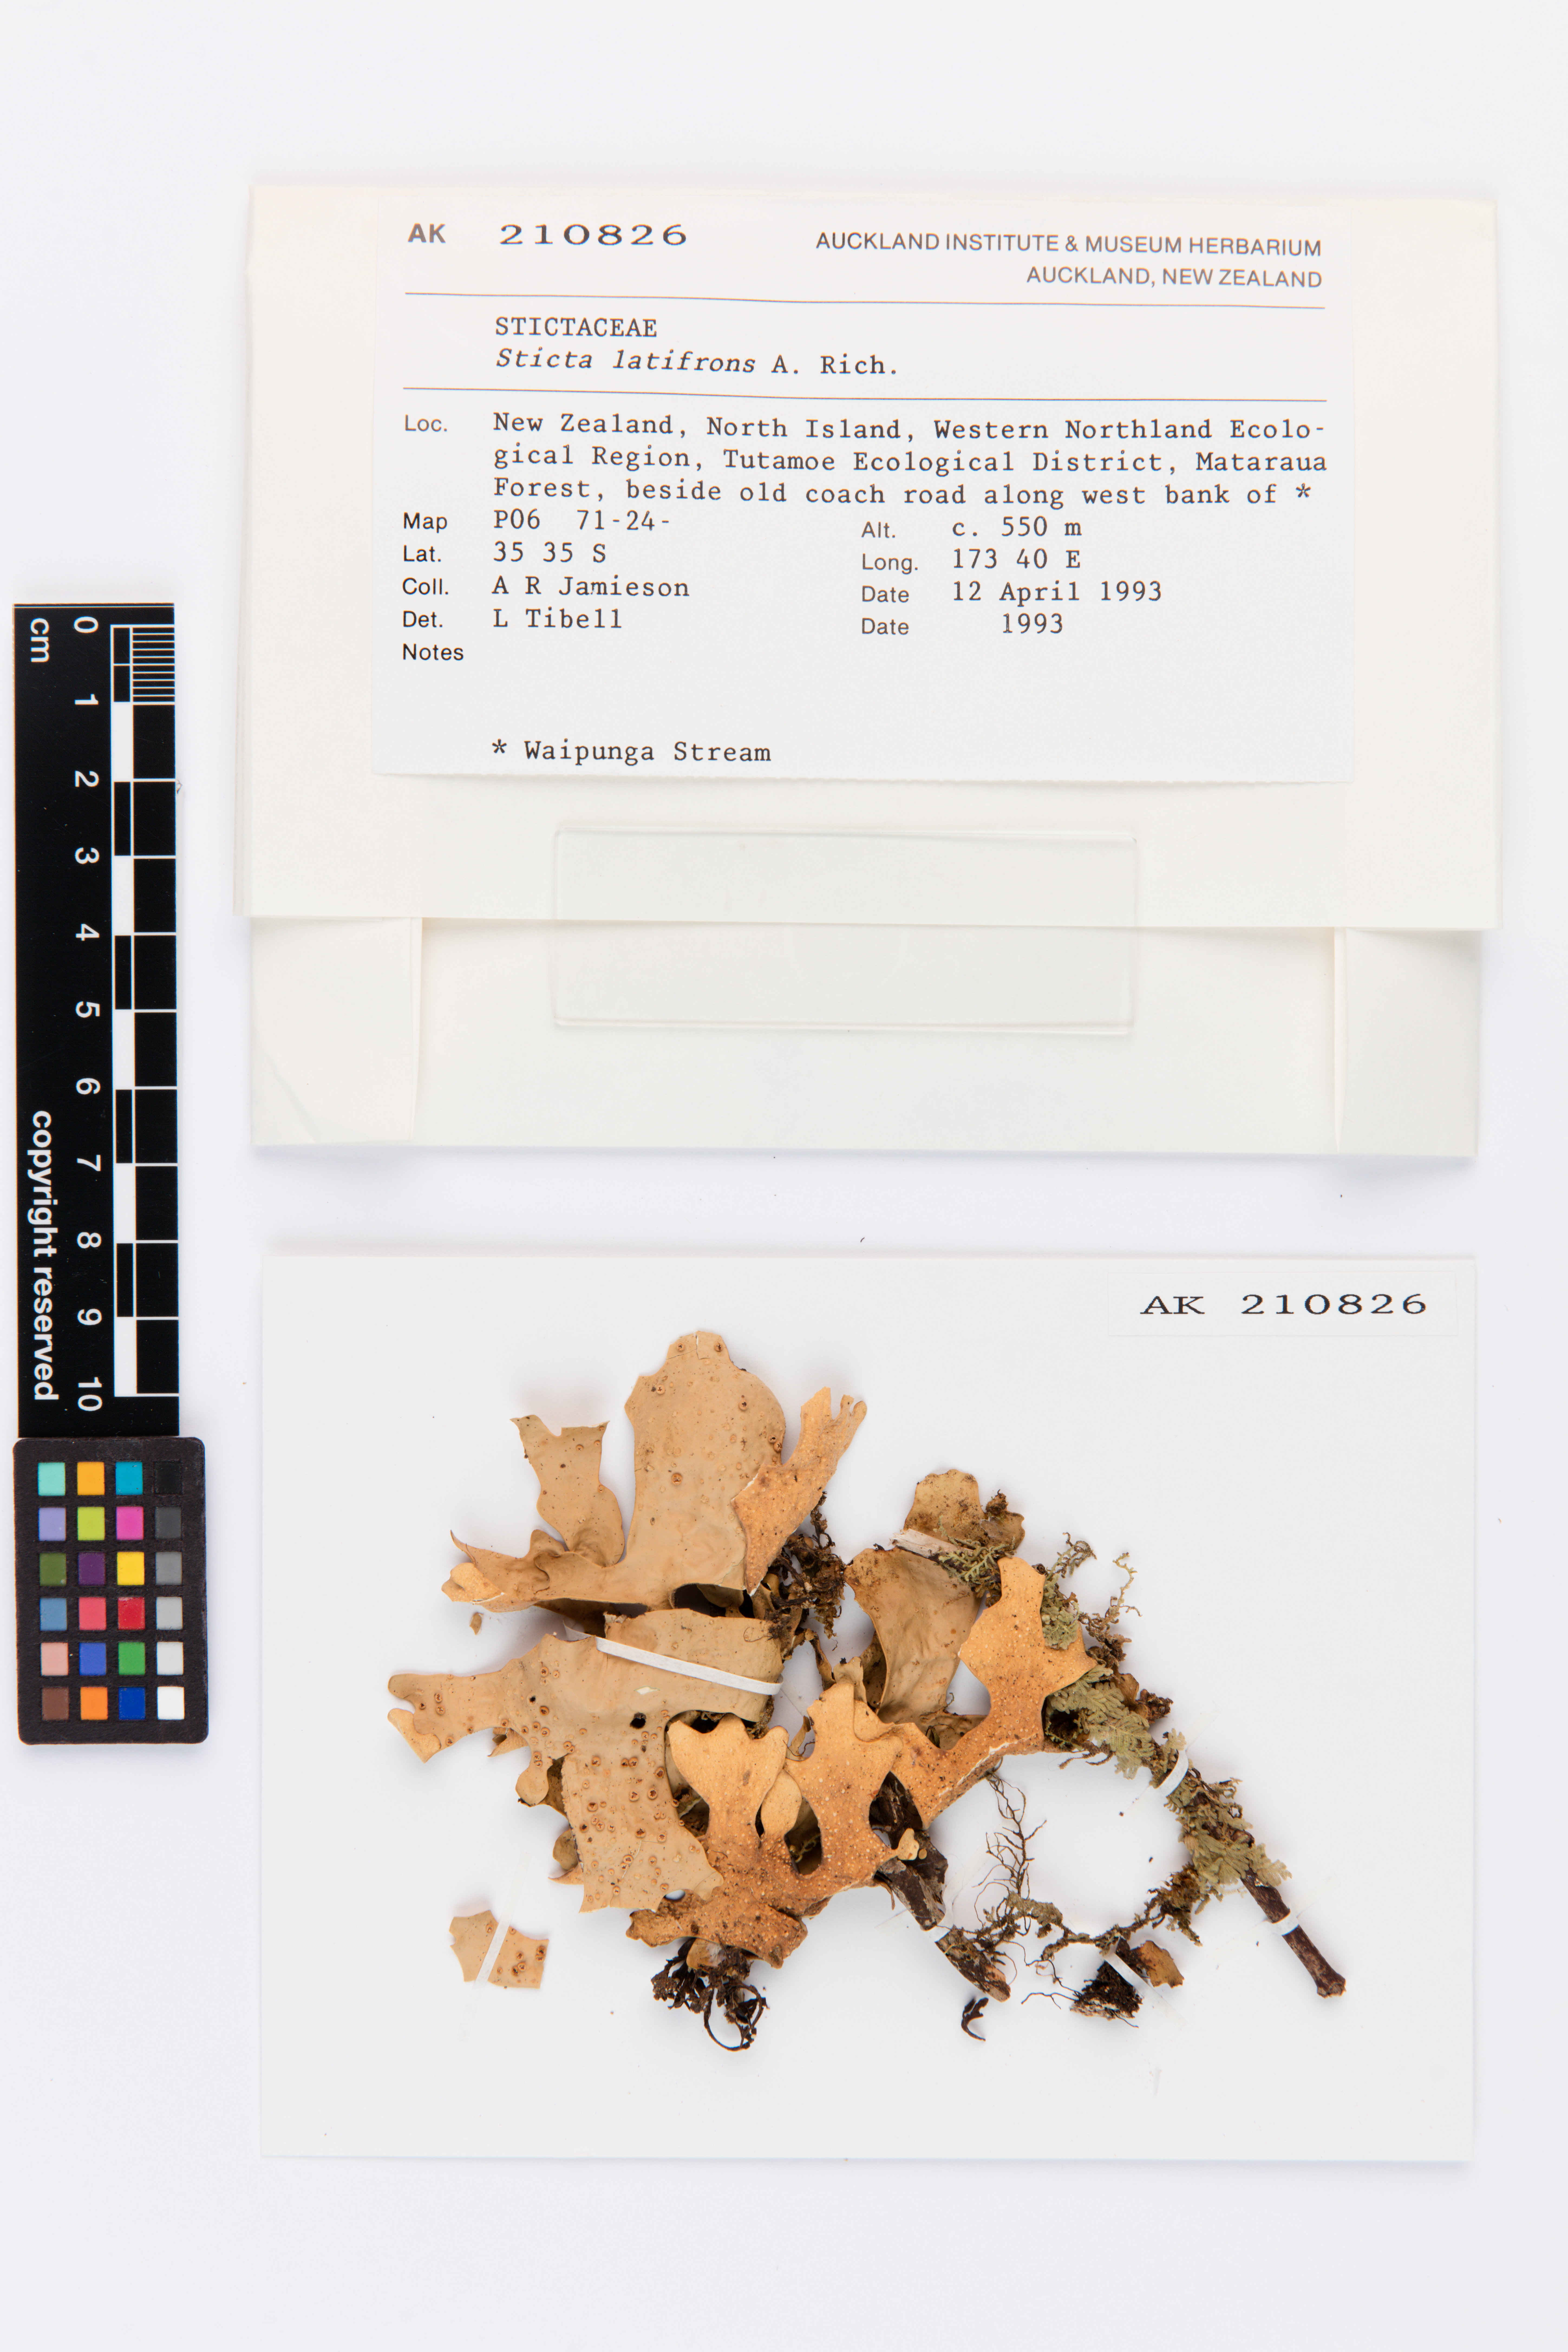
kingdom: Fungi
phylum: Ascomycota
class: Lecanoromycetes
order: Peltigerales
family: Lobariaceae
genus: Sticta
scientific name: Sticta latifrons
